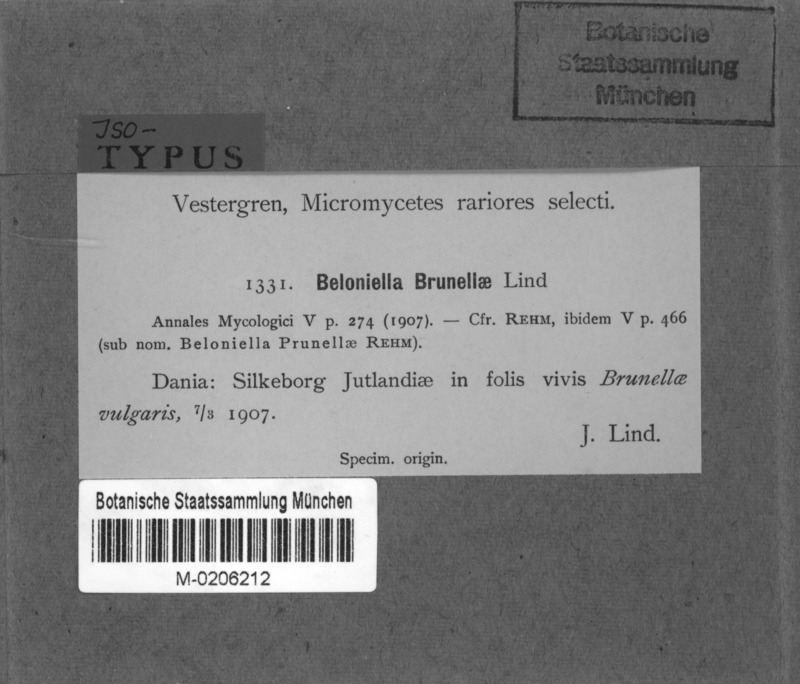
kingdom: Fungi
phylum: Ascomycota
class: Leotiomycetes
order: Helotiales
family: Drepanopezizaceae
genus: Leptotrochila
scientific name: Leptotrochila prunellae
